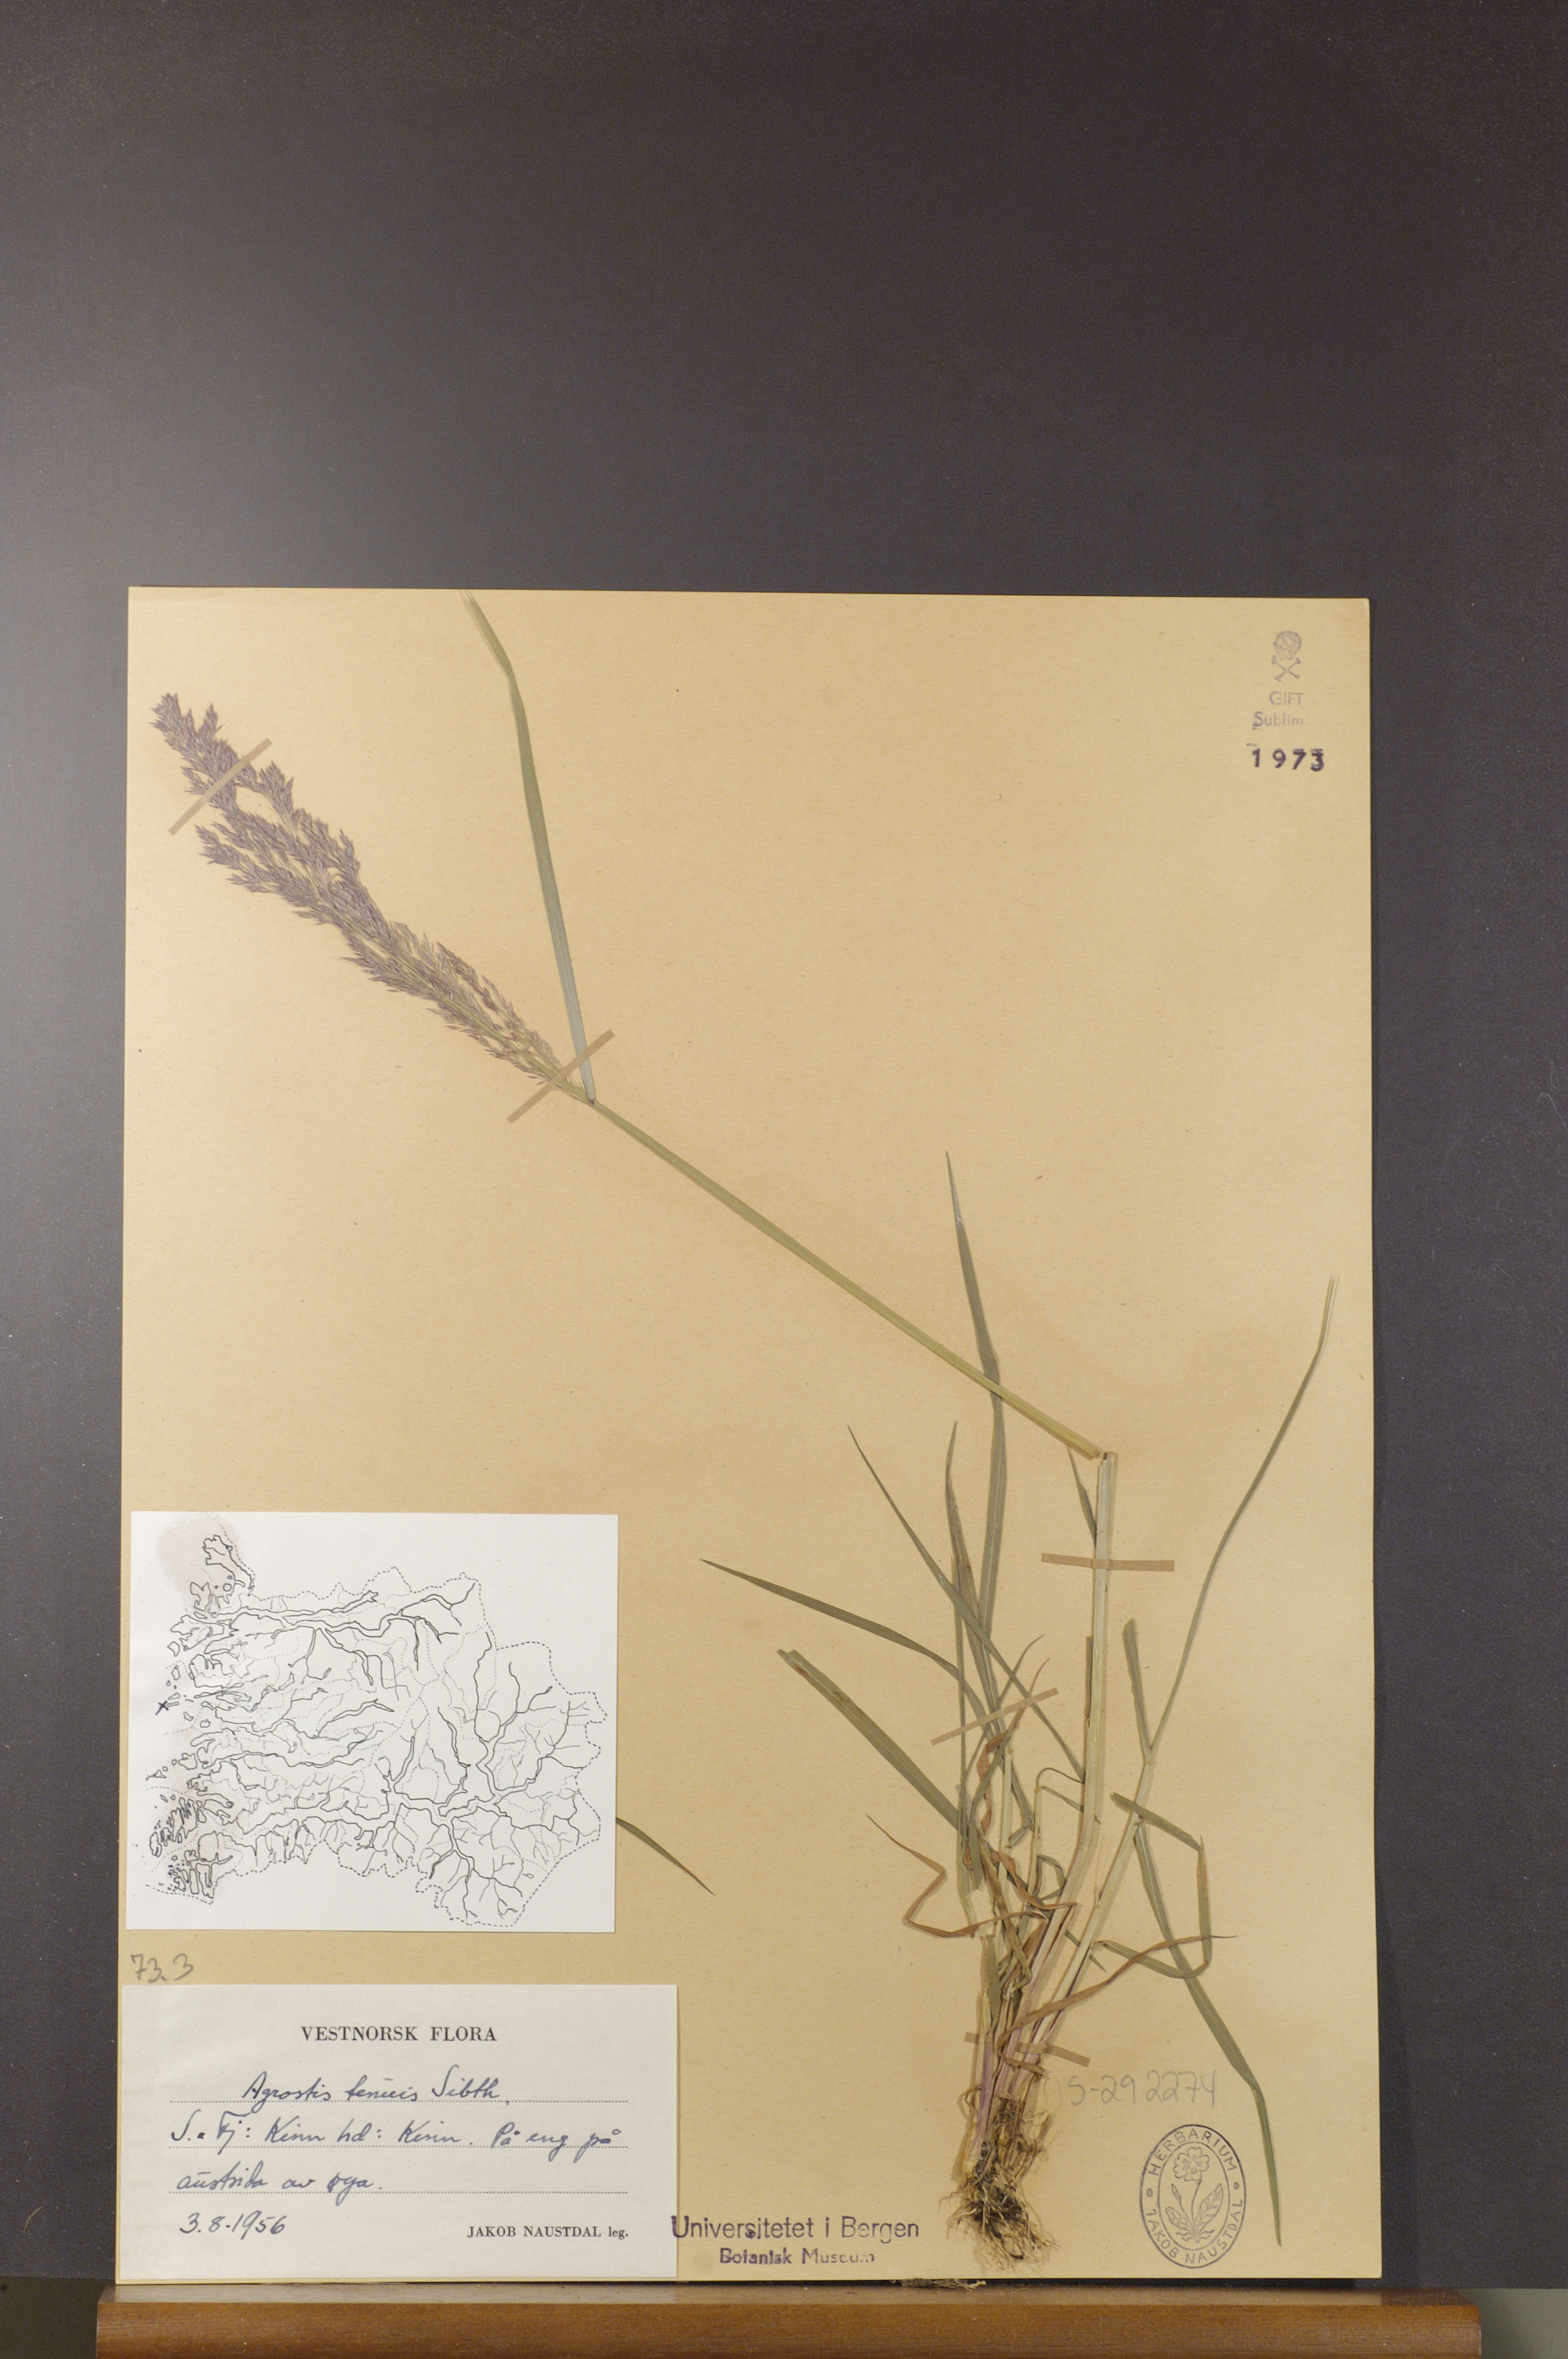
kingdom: Plantae
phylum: Tracheophyta
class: Liliopsida
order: Poales
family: Poaceae
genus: Agrostis
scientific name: Agrostis capillaris
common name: Colonial bentgrass
